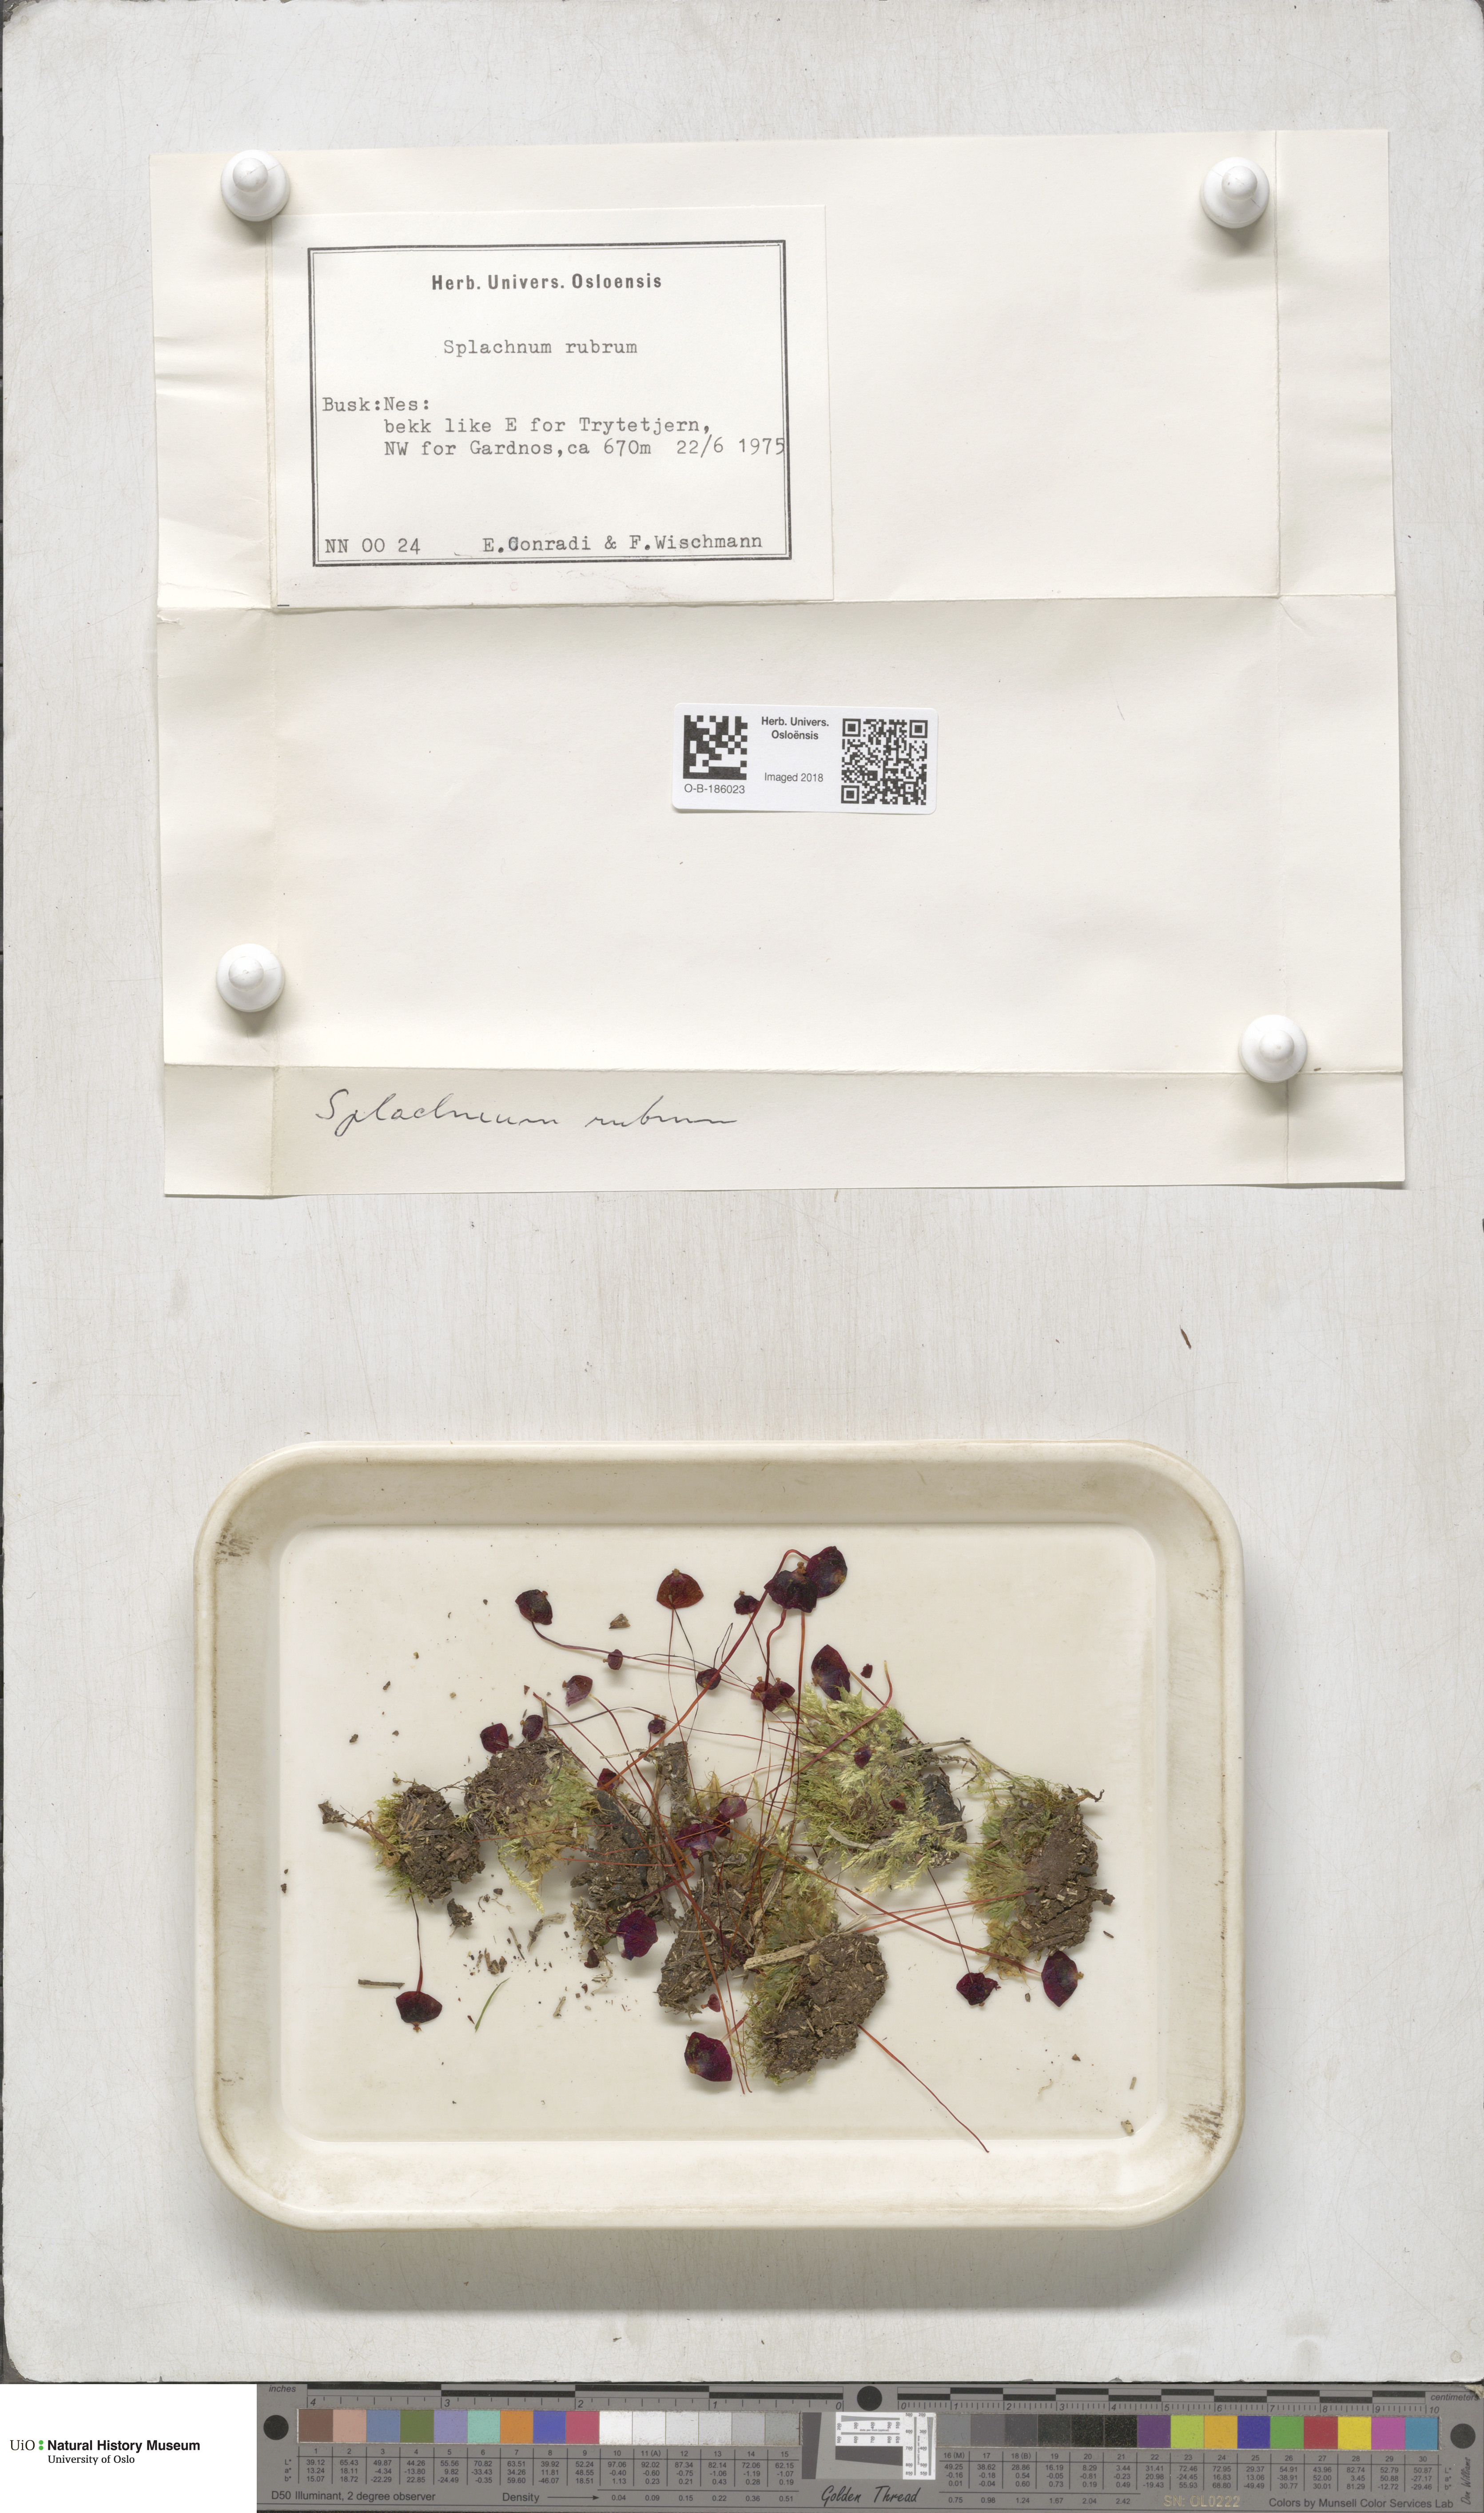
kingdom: Plantae
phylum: Bryophyta
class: Bryopsida
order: Splachnales
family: Splachnaceae
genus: Splachnum
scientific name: Splachnum rubrum
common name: Red dung moss
